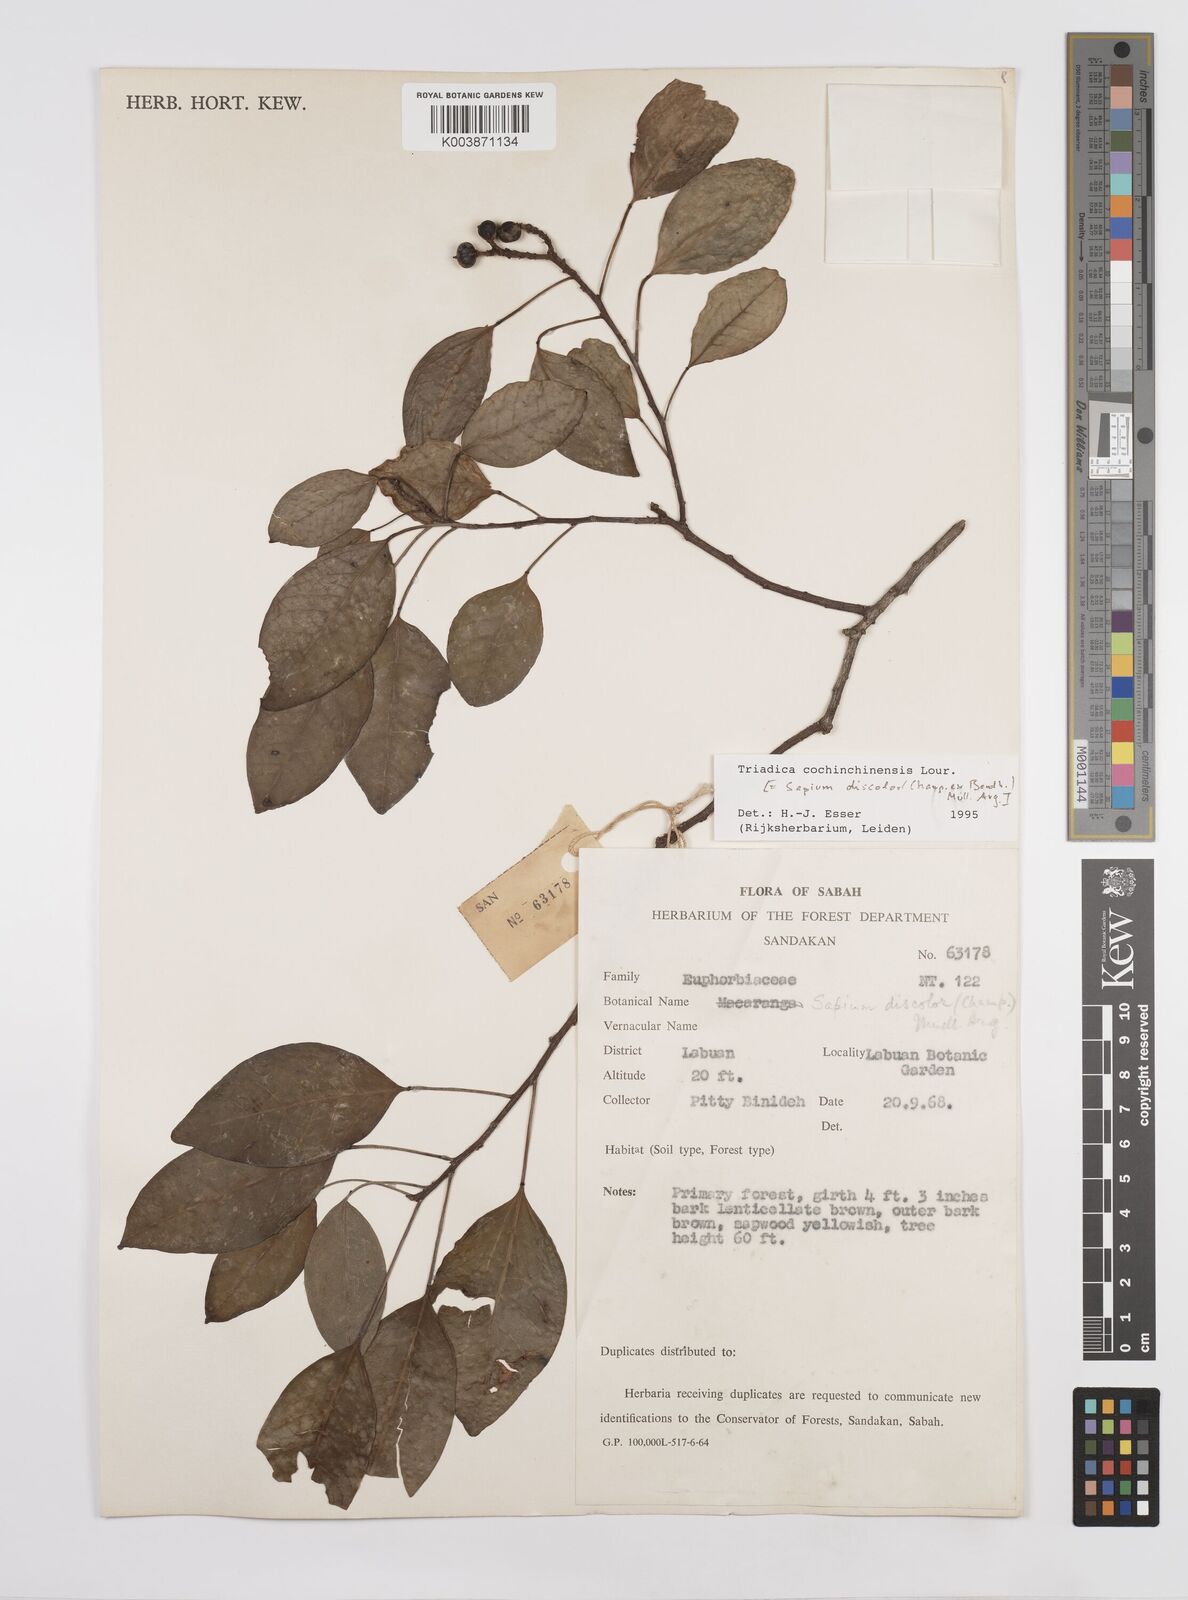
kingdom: Plantae
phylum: Tracheophyta
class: Magnoliopsida
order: Malpighiales
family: Euphorbiaceae
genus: Triadica
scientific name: Triadica cochinchinensis
